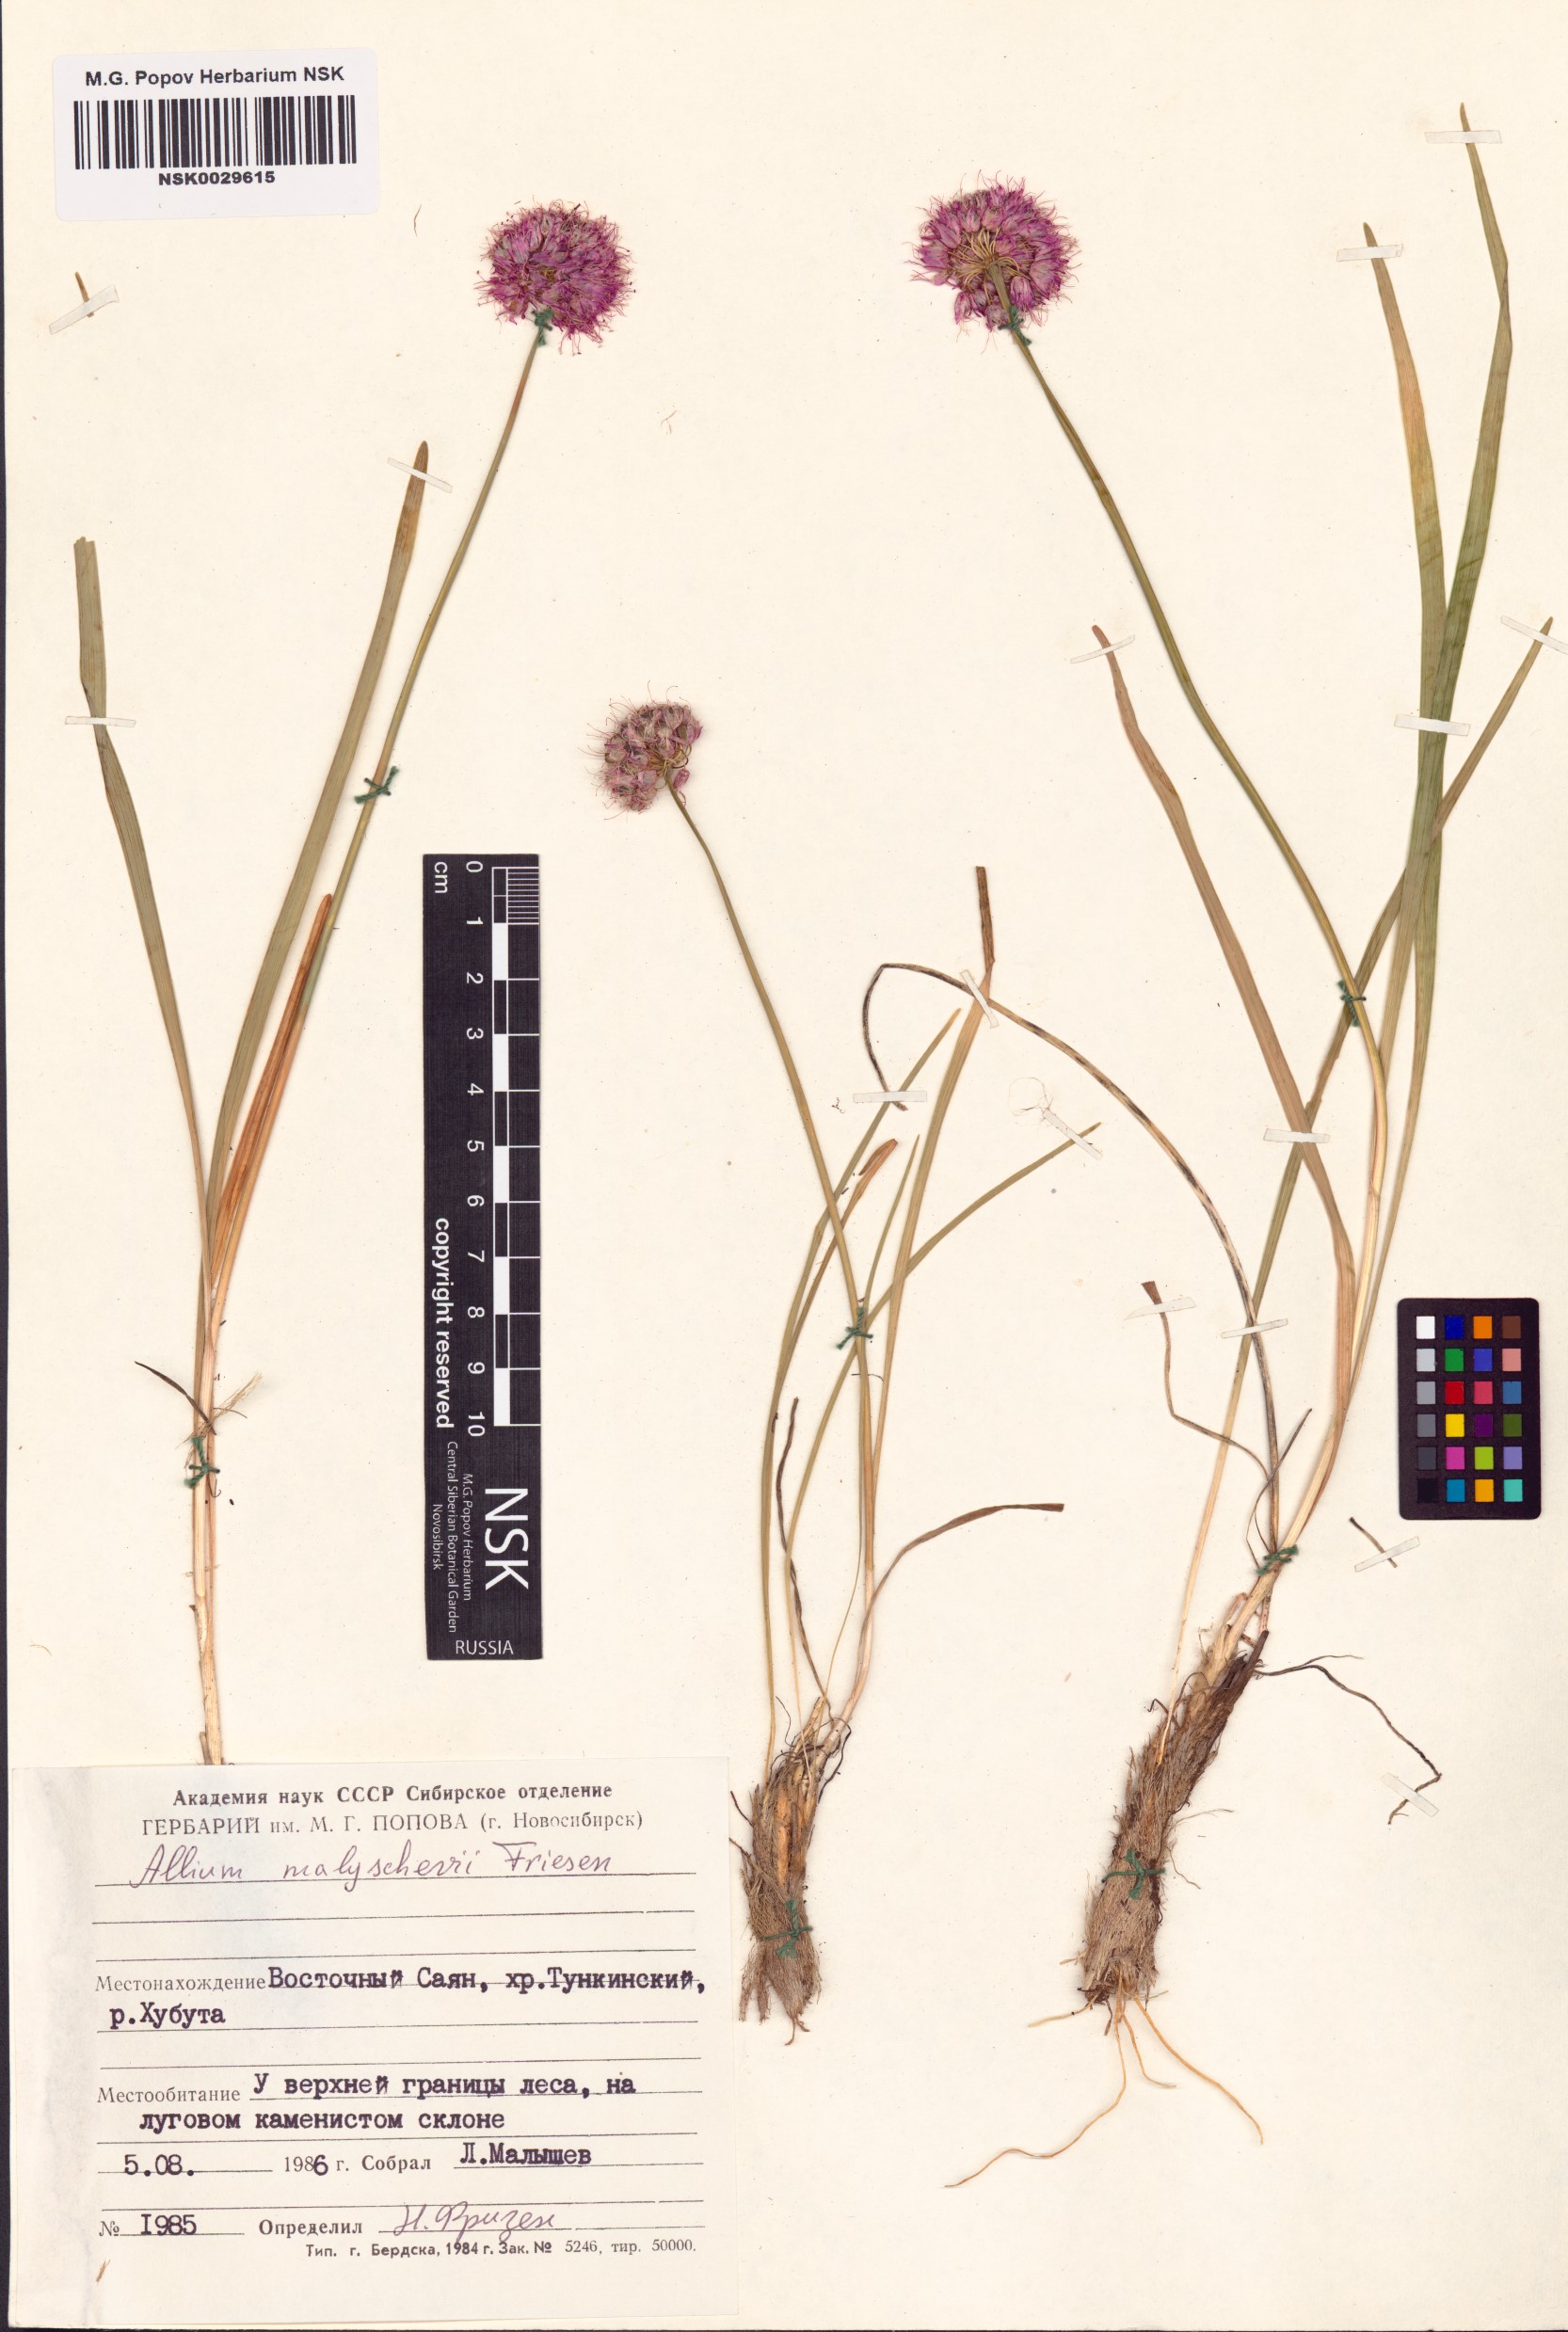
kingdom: Plantae
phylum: Tracheophyta
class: Liliopsida
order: Asparagales
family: Amaryllidaceae
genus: Allium
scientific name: Allium malyschevii
